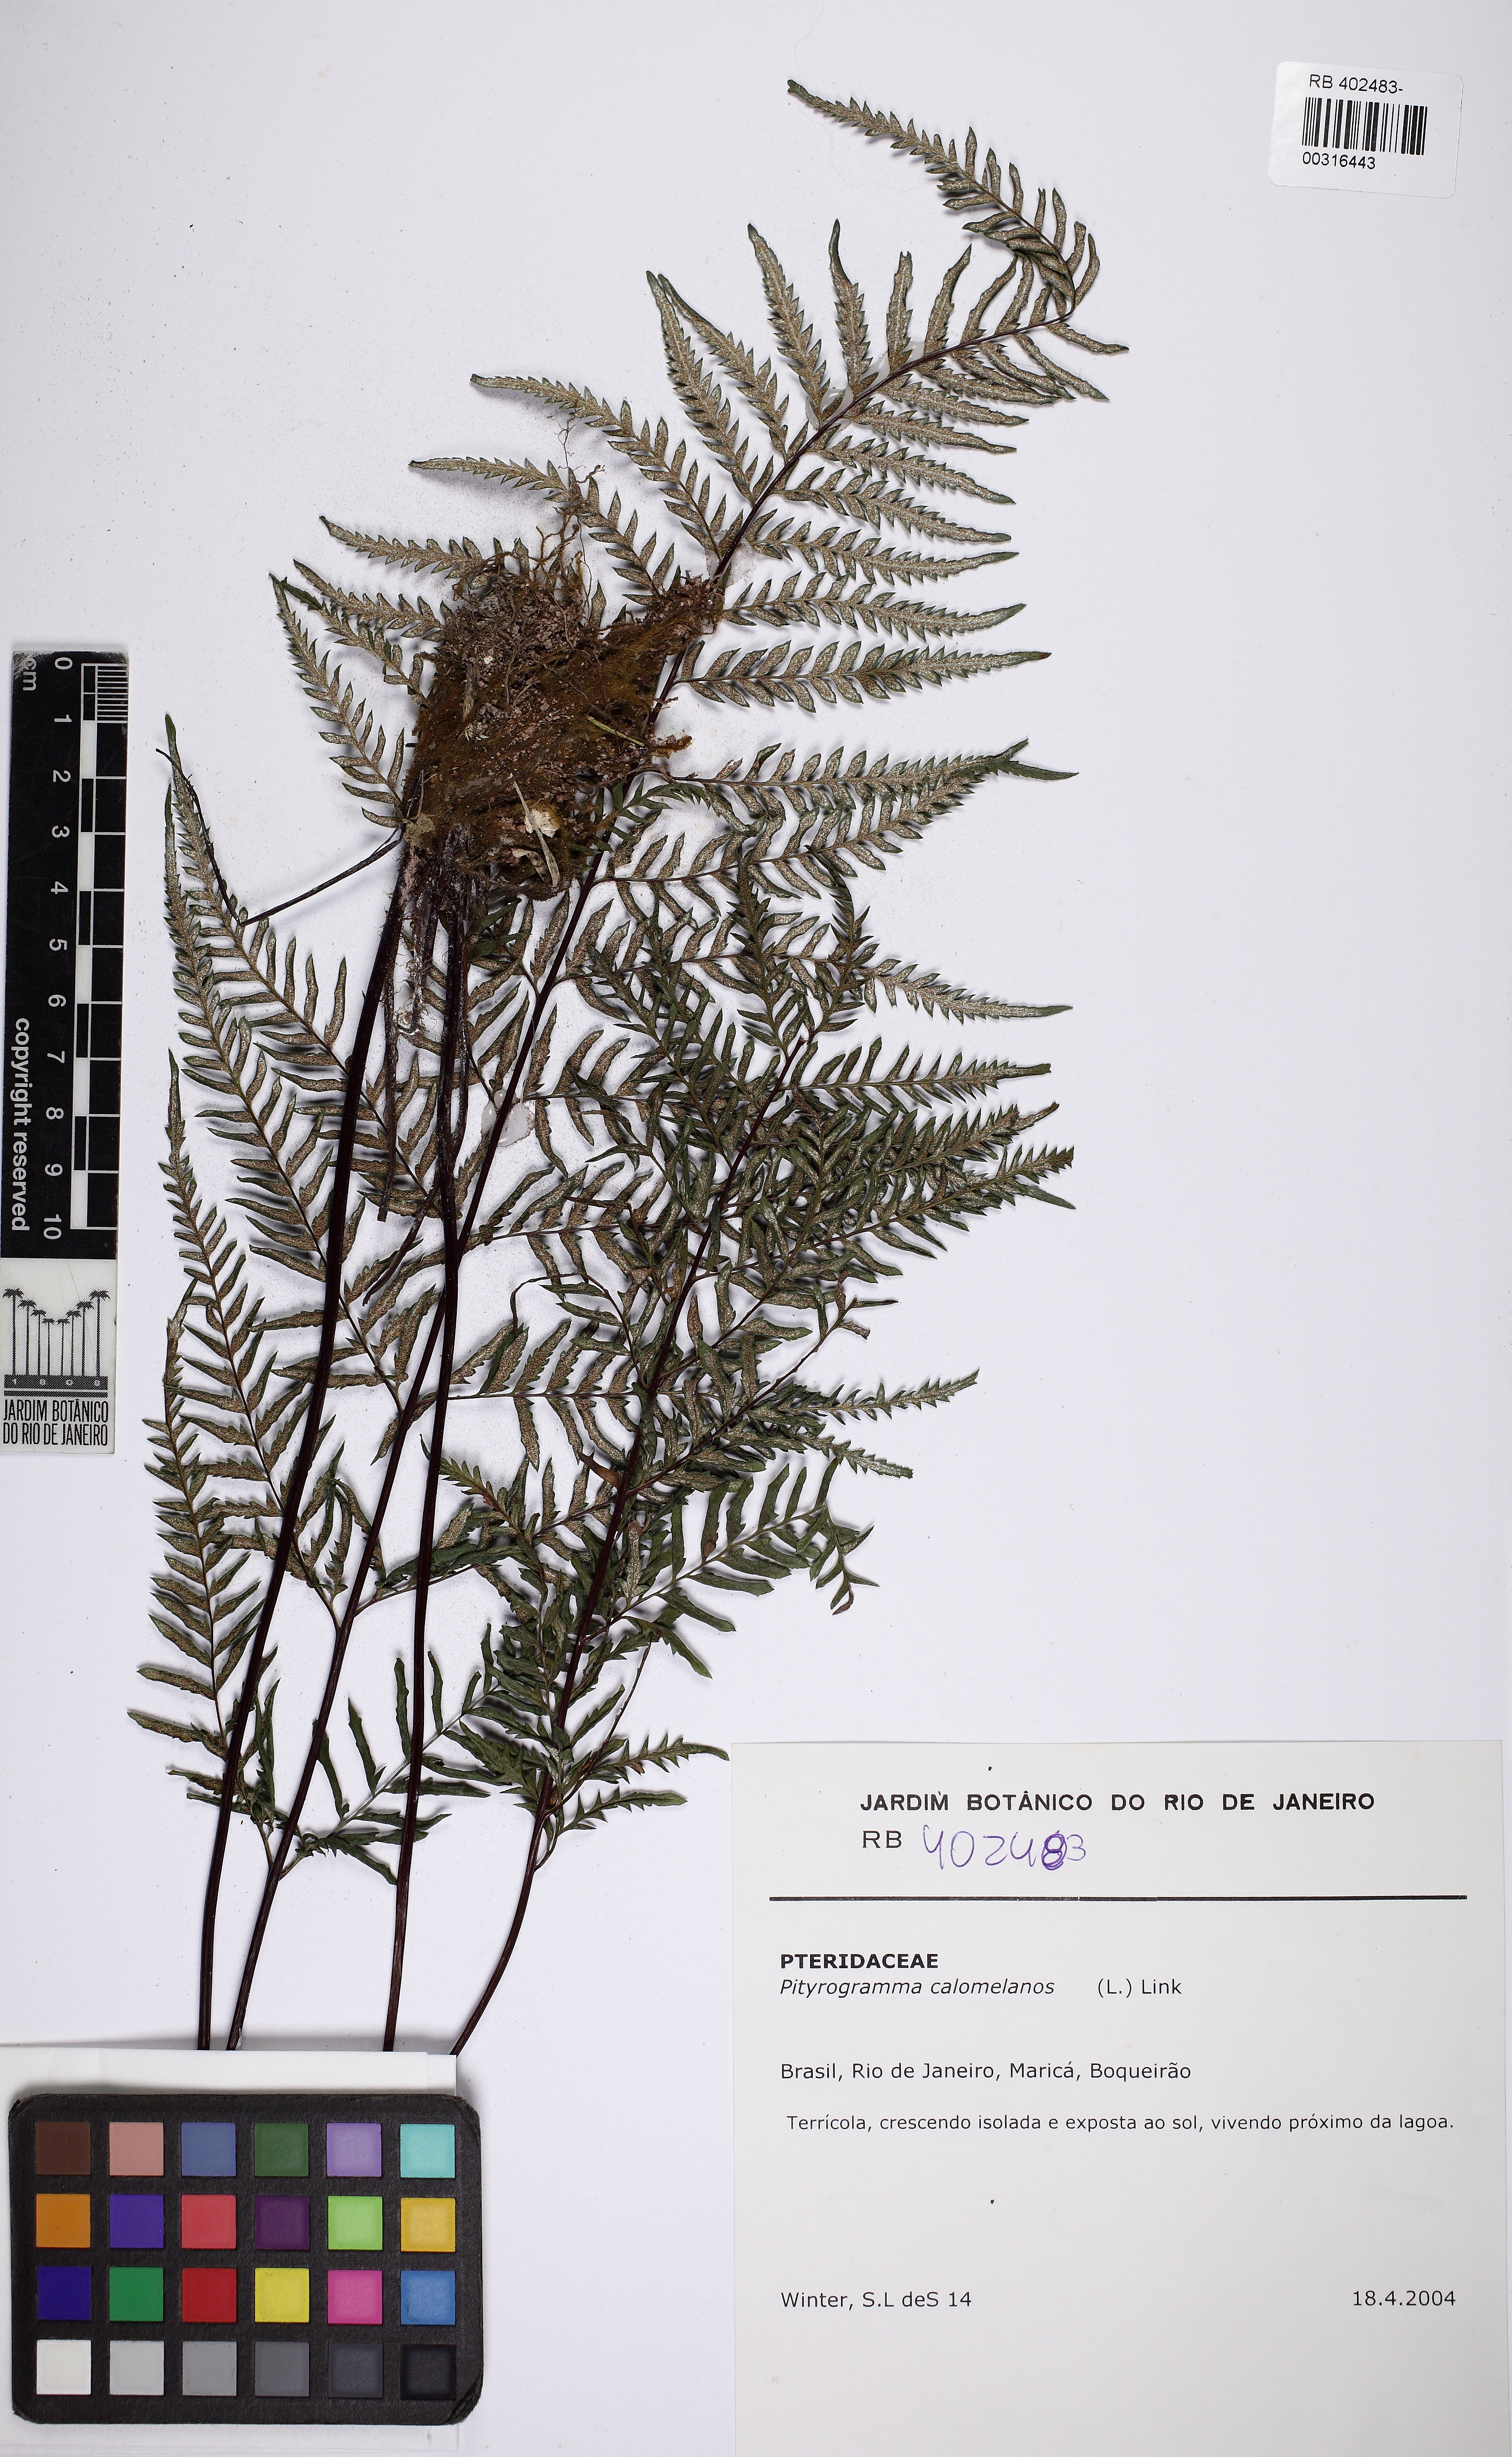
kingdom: Plantae
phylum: Tracheophyta
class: Polypodiopsida
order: Polypodiales
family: Pteridaceae
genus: Pityrogramma
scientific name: Pityrogramma calomelanos
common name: Dixie silverback fern
